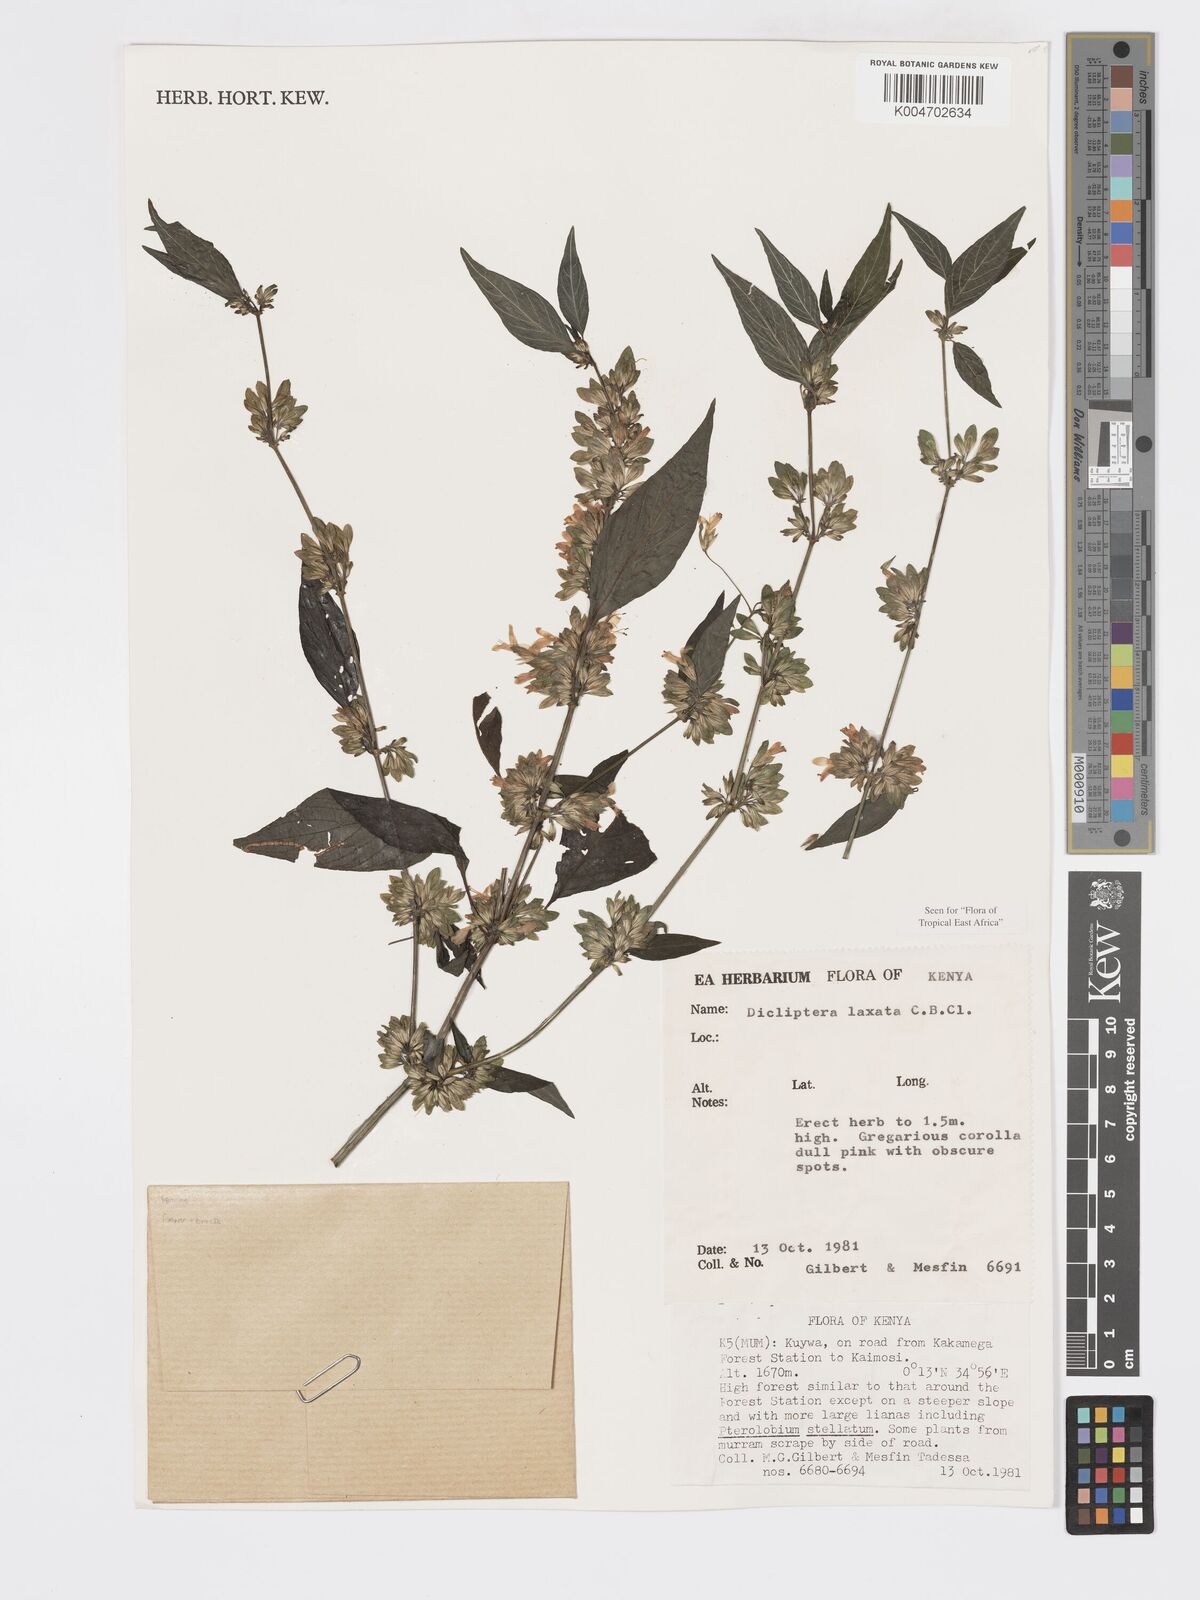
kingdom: Plantae
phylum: Tracheophyta
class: Magnoliopsida
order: Lamiales
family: Acanthaceae
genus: Dicliptera
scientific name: Dicliptera laxata
